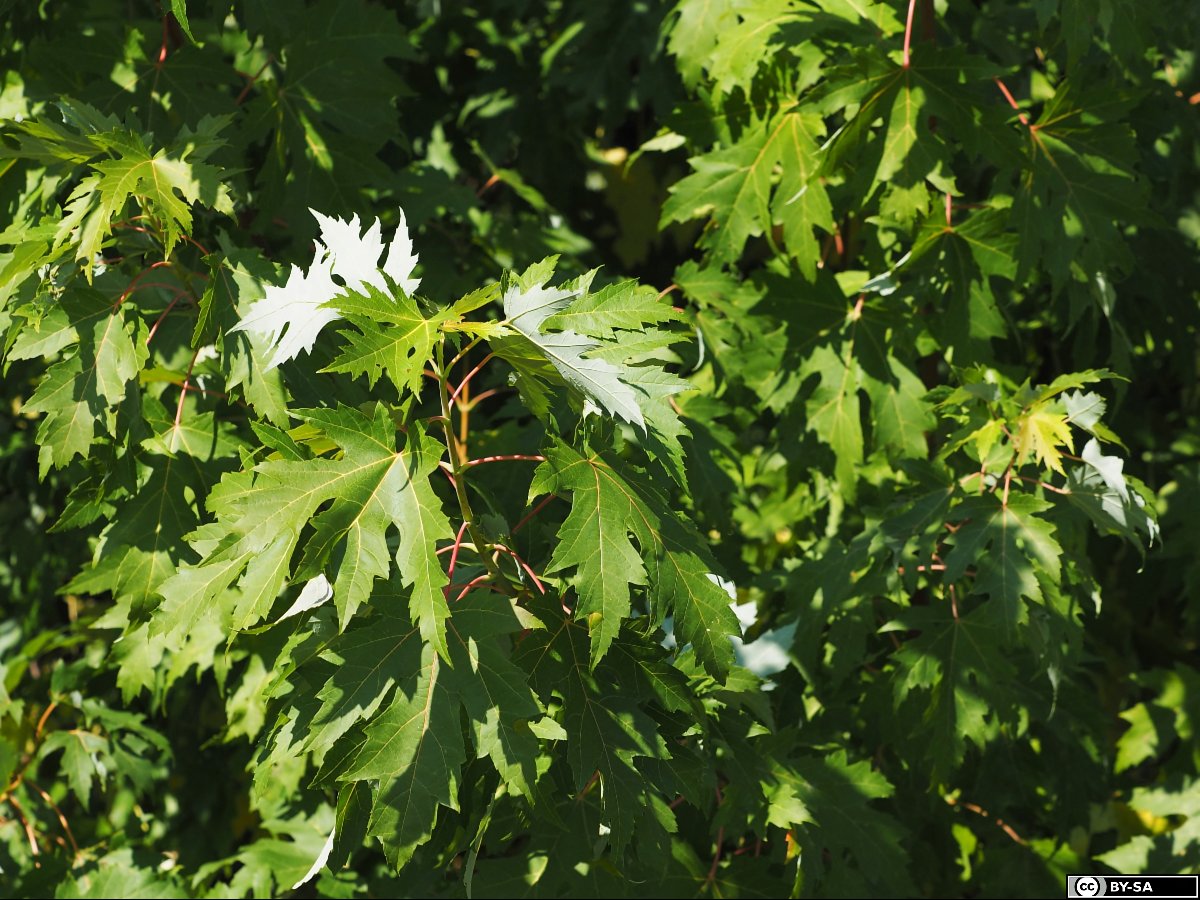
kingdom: Plantae
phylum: Tracheophyta
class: Magnoliopsida
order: Sapindales
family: Sapindaceae
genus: Acer
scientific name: Acer saccharinum
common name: Silver maple
